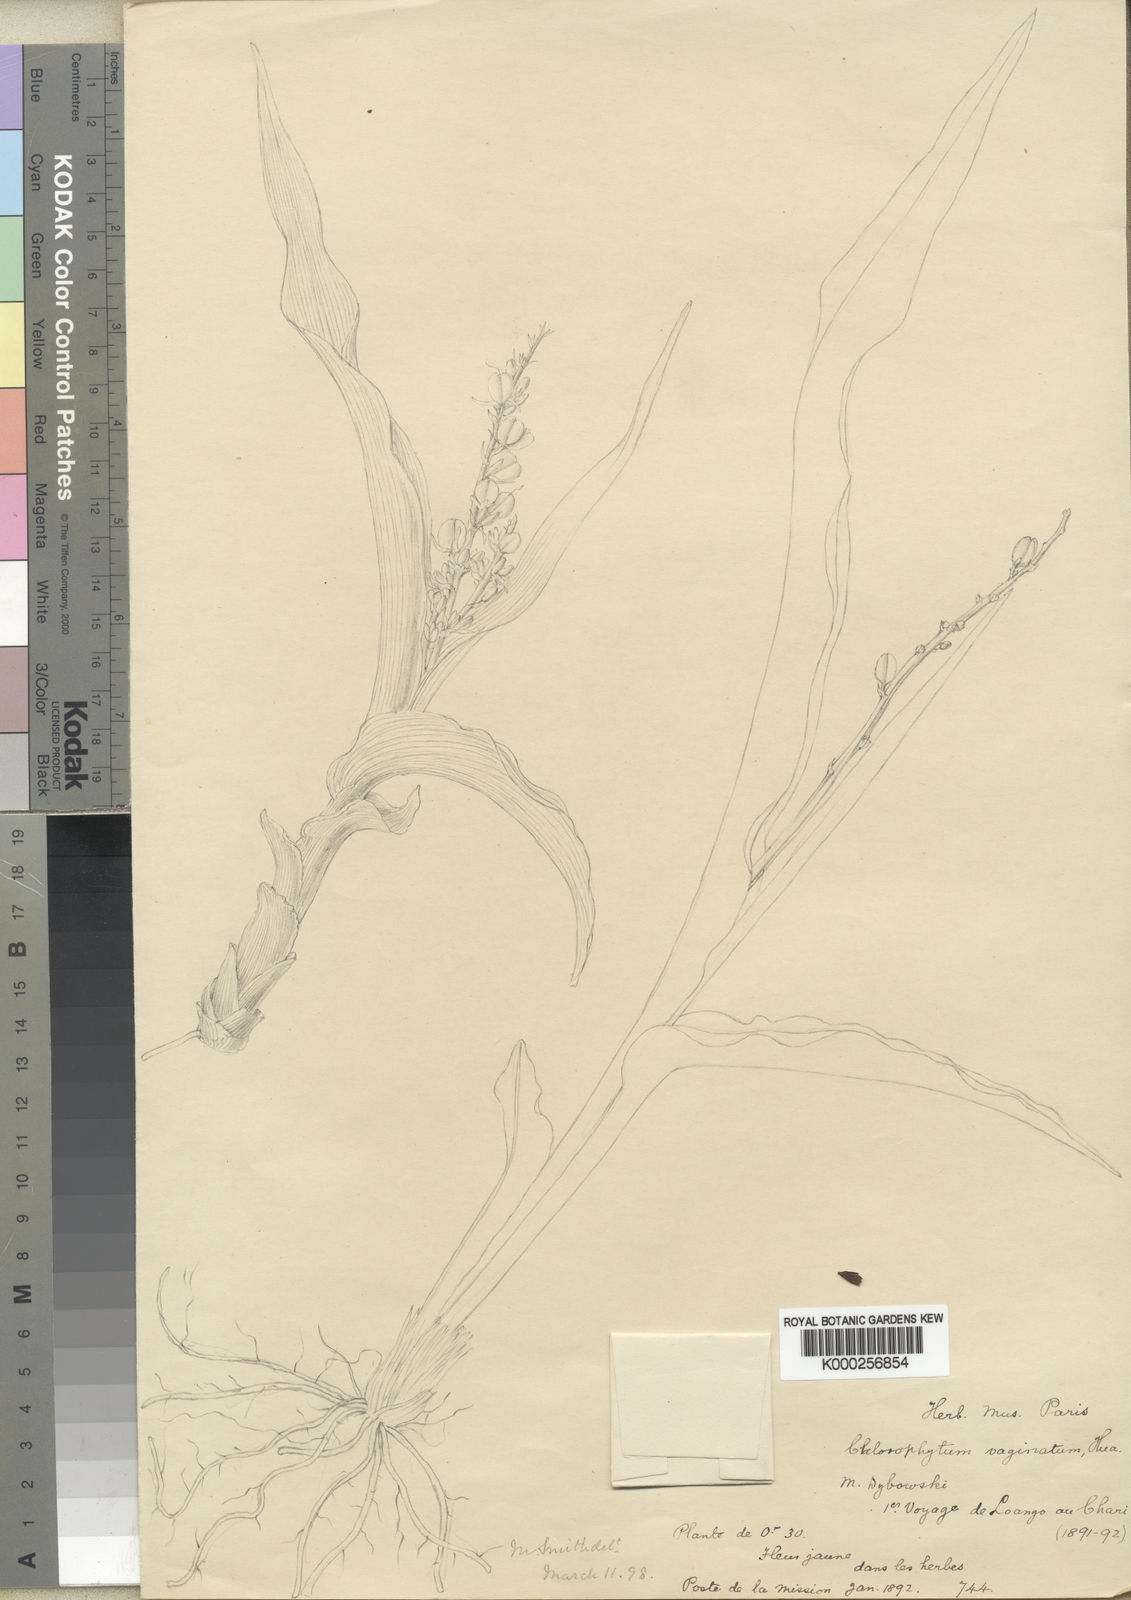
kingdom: Plantae
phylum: Tracheophyta
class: Liliopsida
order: Asparagales
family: Asparagaceae
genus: Chlorophytum
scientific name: Chlorophytum vaginatum
